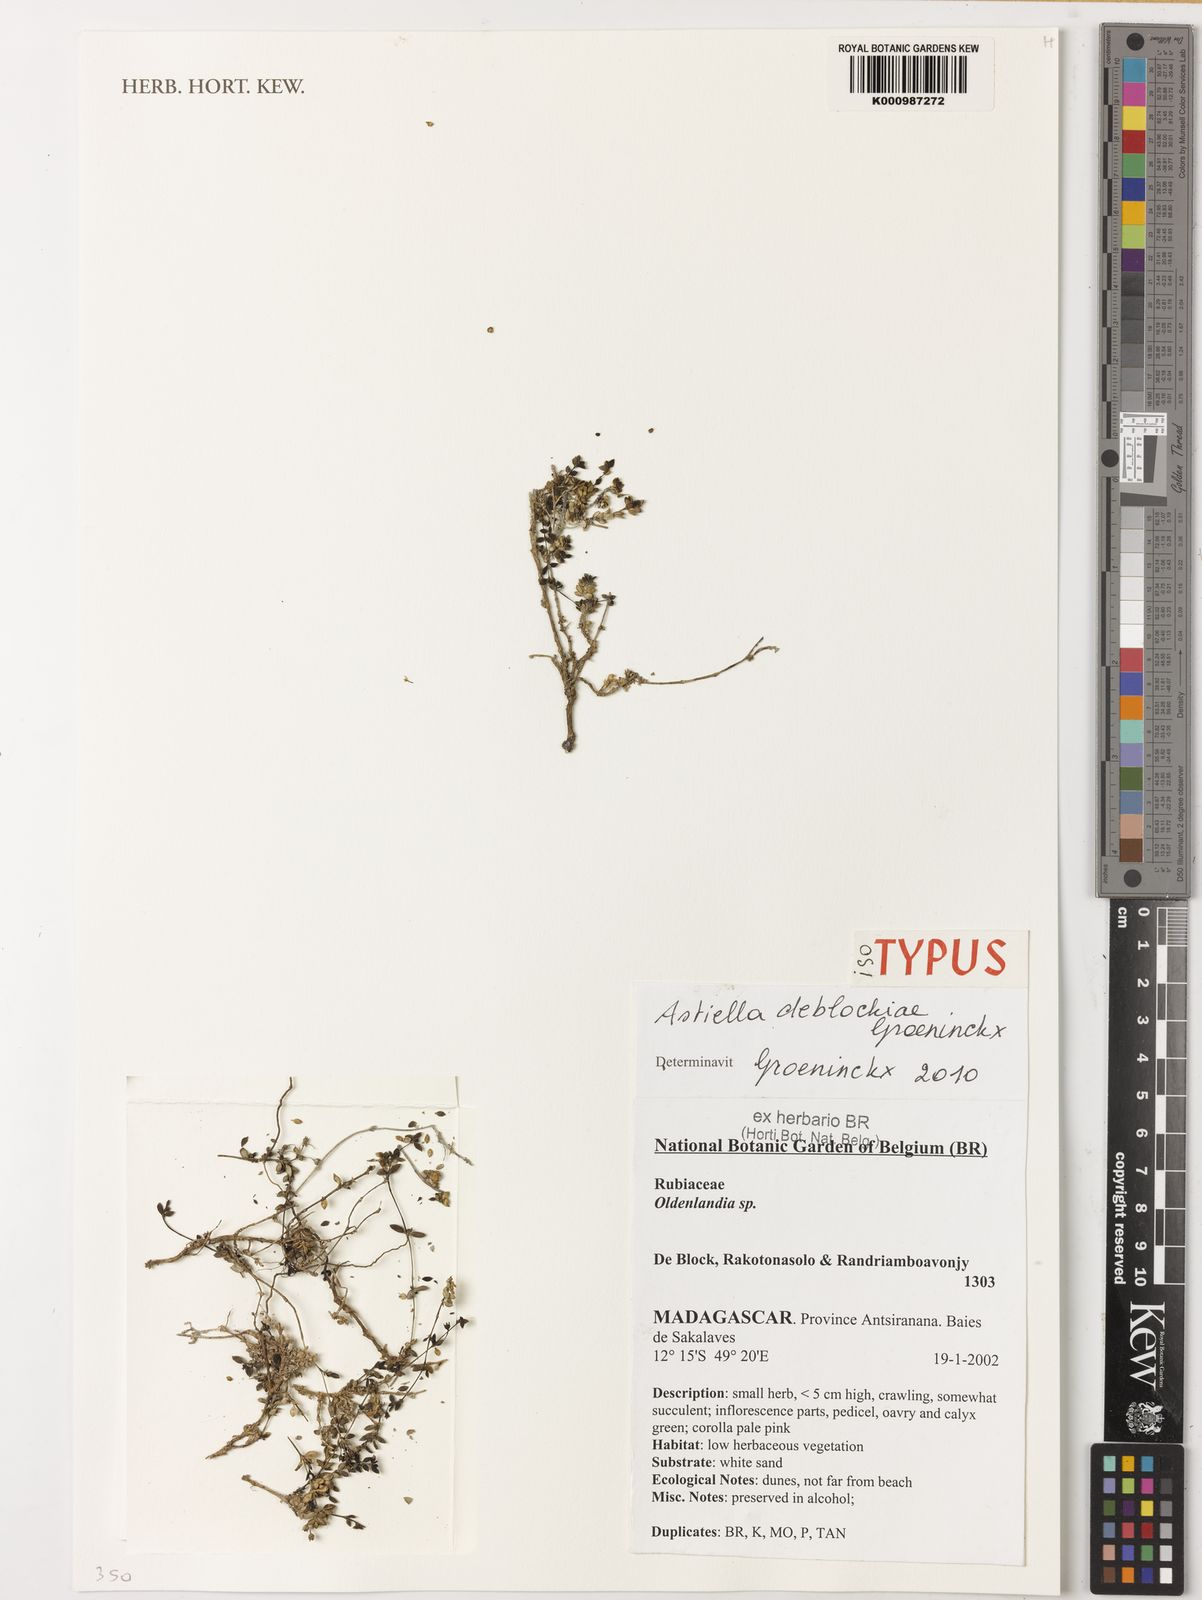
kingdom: Plantae
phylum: Tracheophyta
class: Magnoliopsida
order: Gentianales
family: Rubiaceae
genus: Astiella
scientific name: Astiella deblockiae
